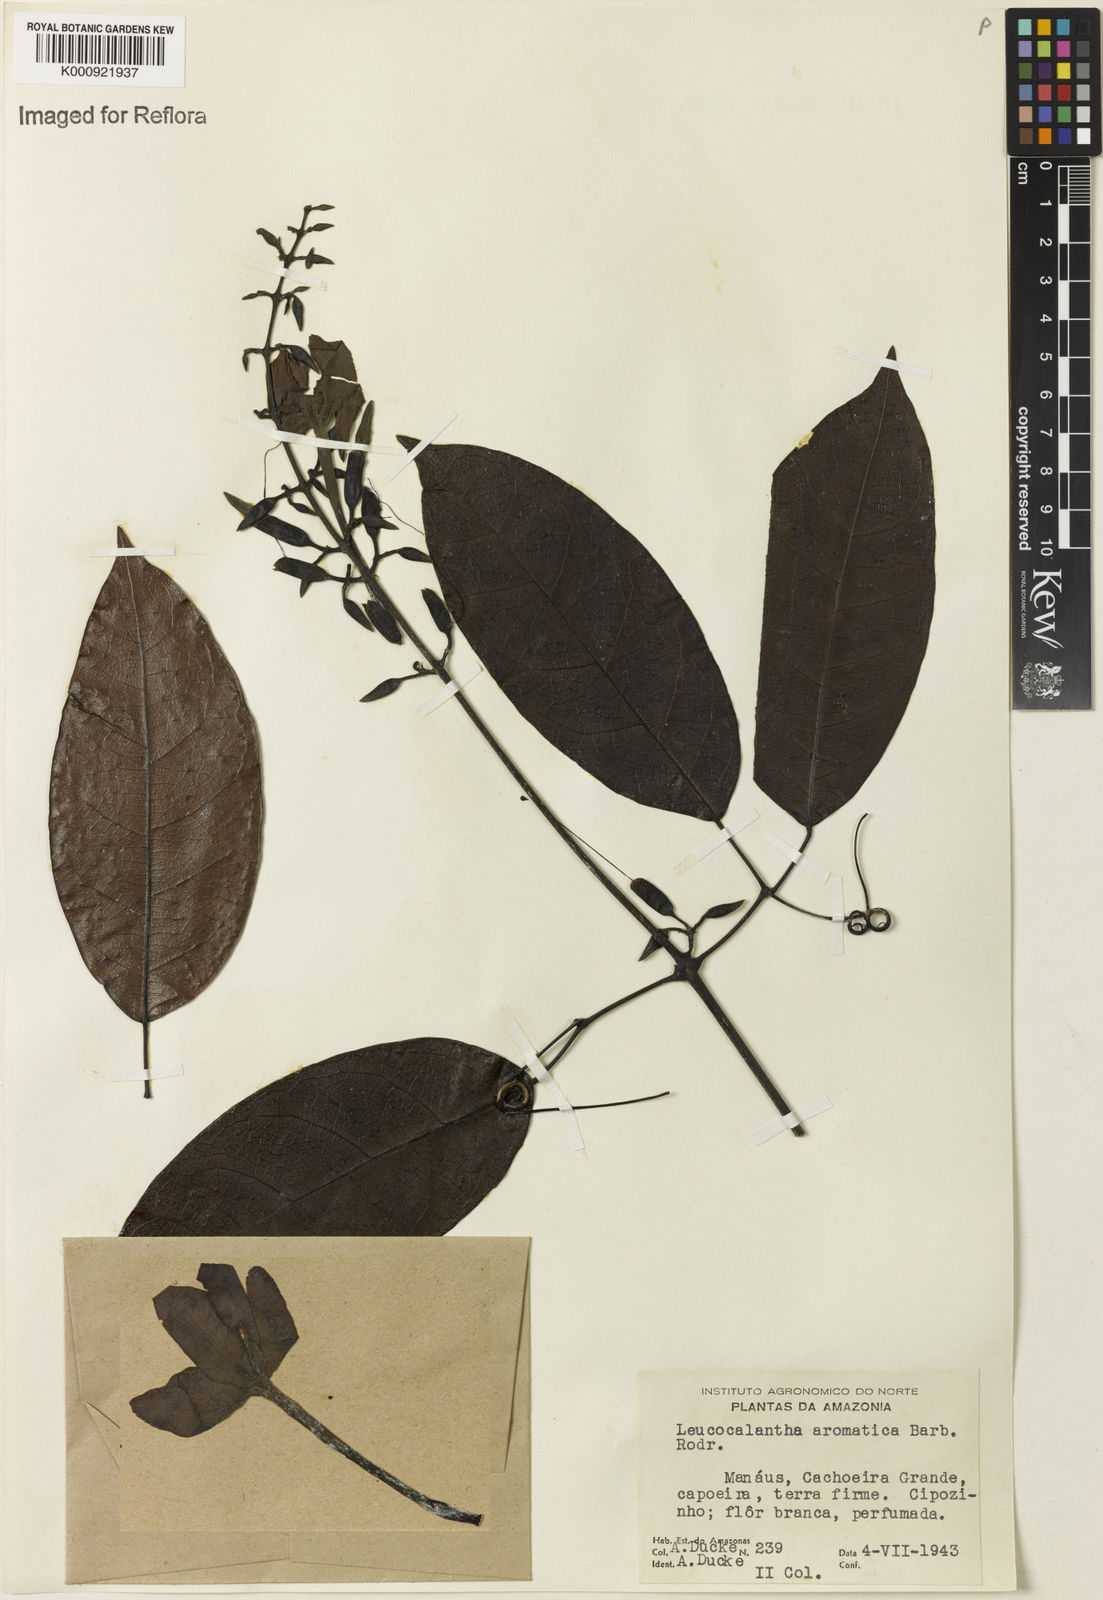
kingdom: Plantae
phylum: Tracheophyta
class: Magnoliopsida
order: Lamiales
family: Bignoniaceae
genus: Pachyptera
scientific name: Pachyptera aromatica
